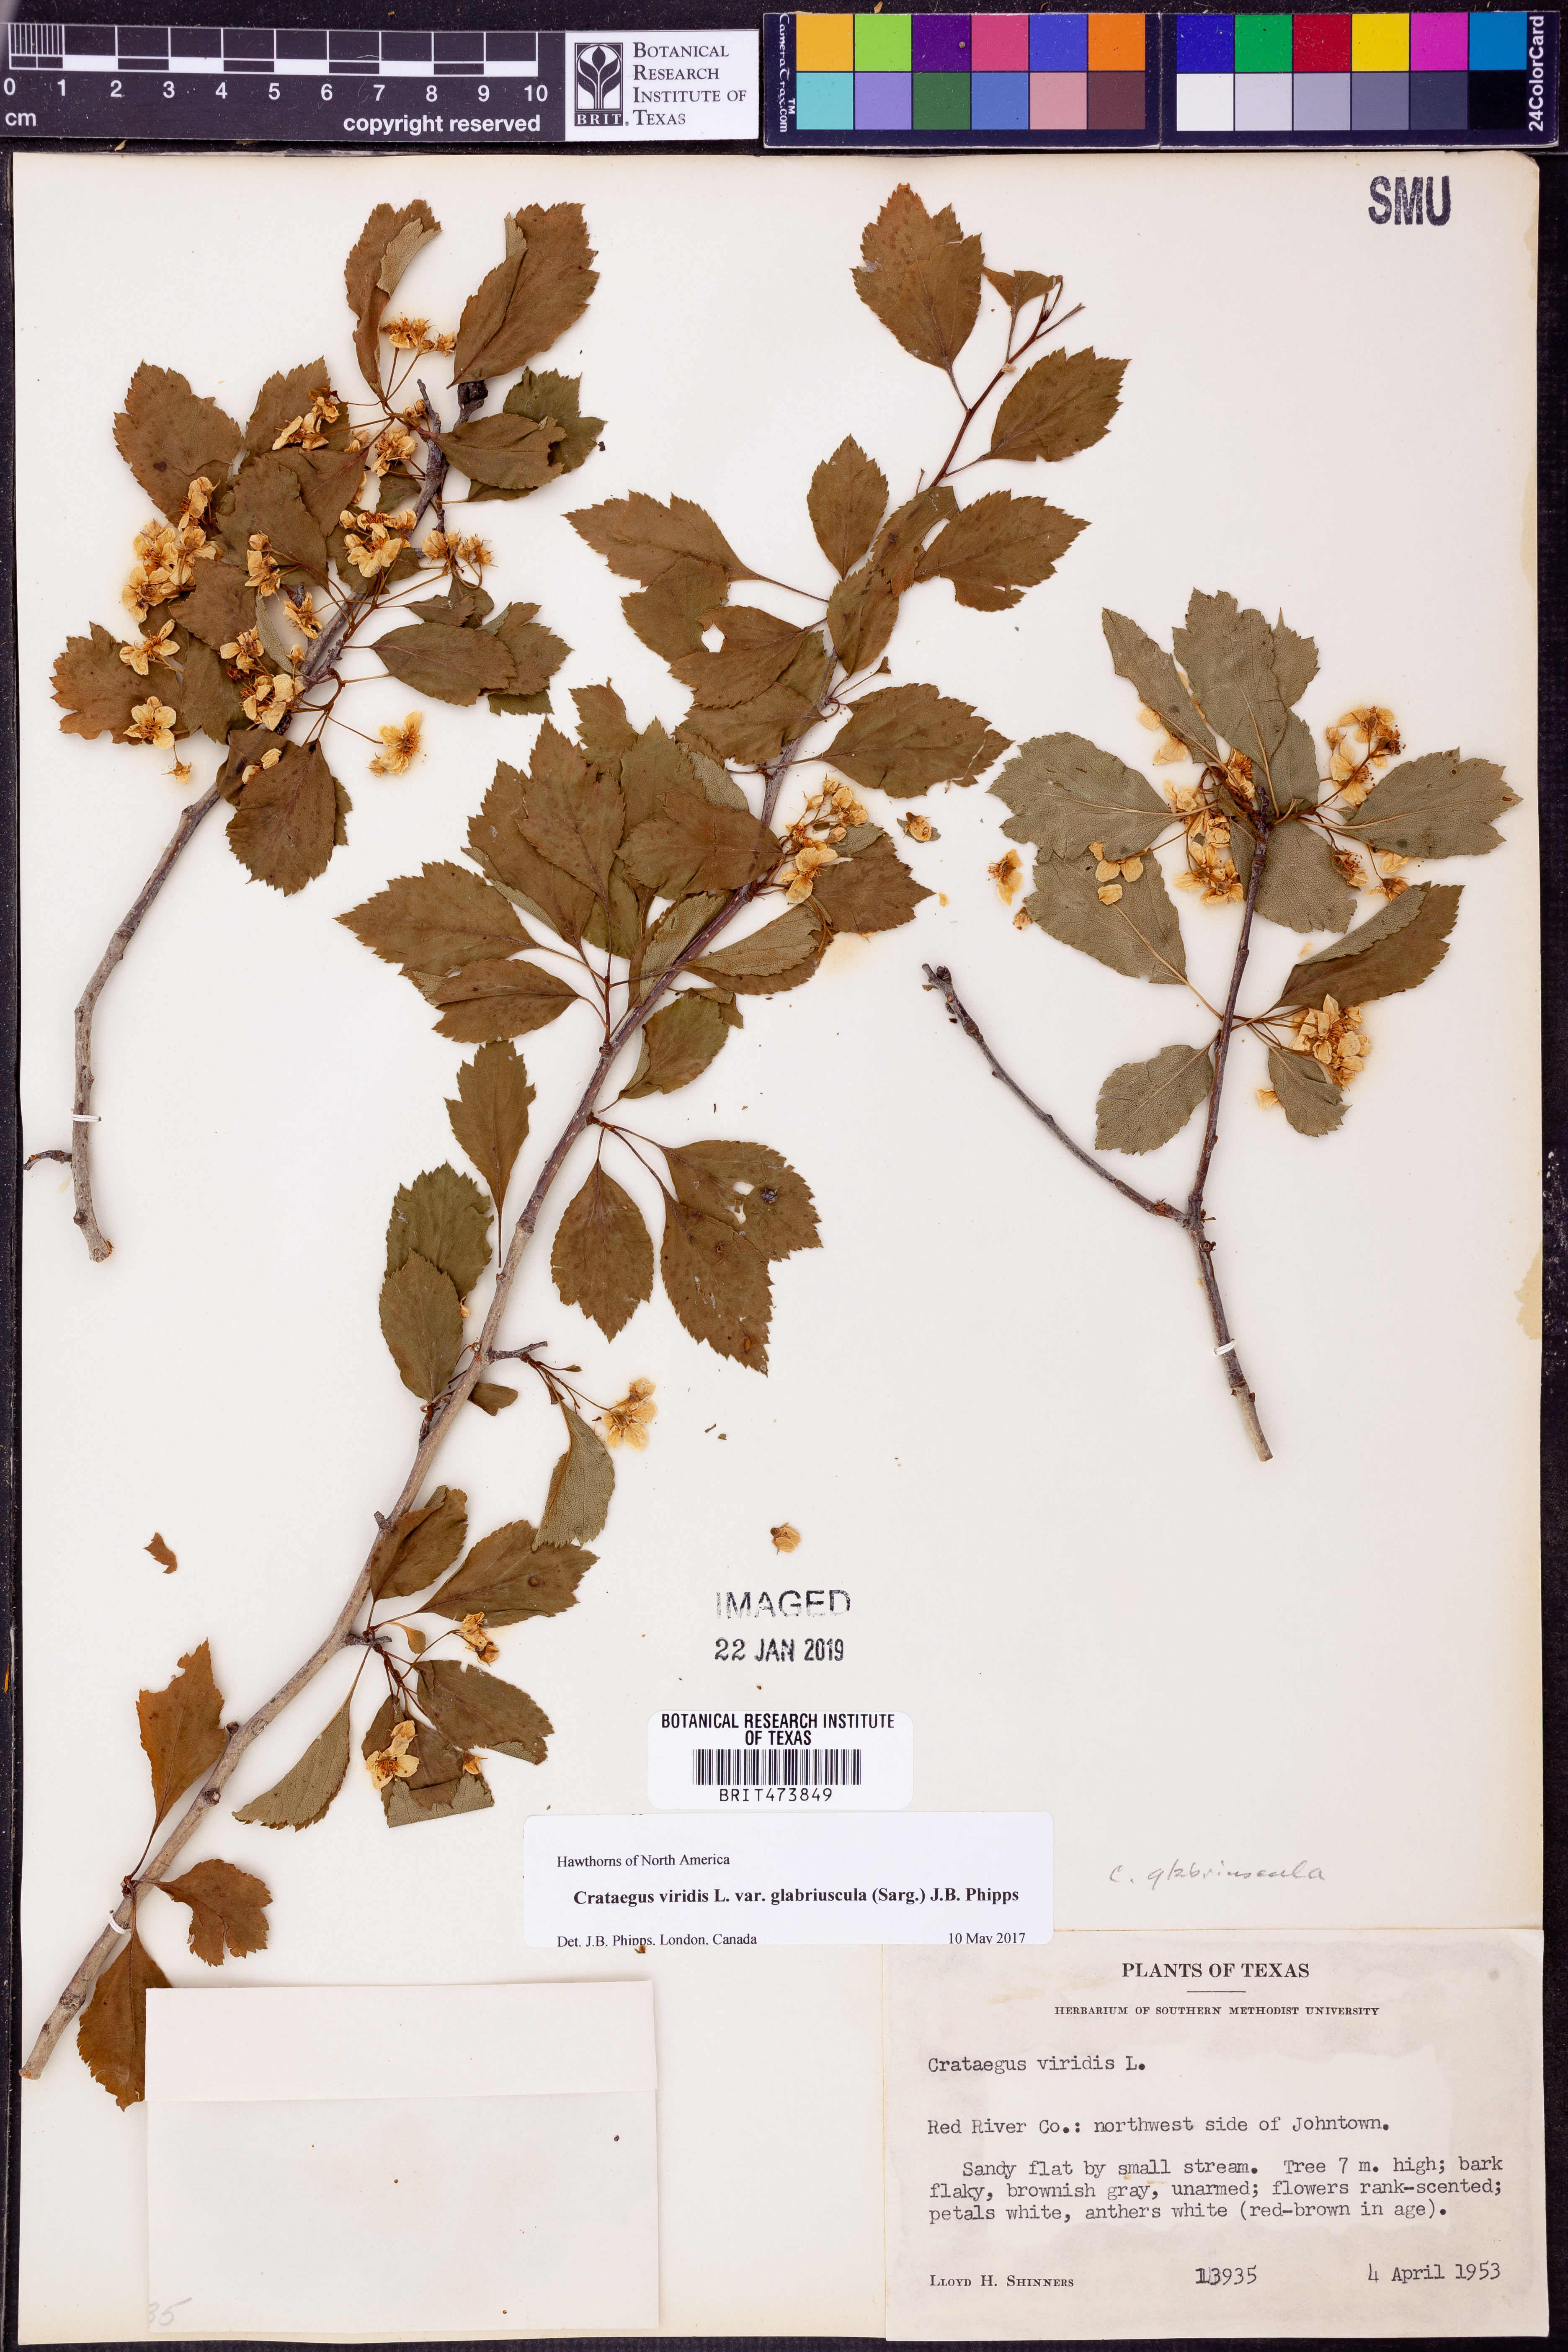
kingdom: Plantae
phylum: Tracheophyta
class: Magnoliopsida
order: Rosales
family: Rosaceae
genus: Crataegus
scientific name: Crataegus viridis
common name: Southernthorn
